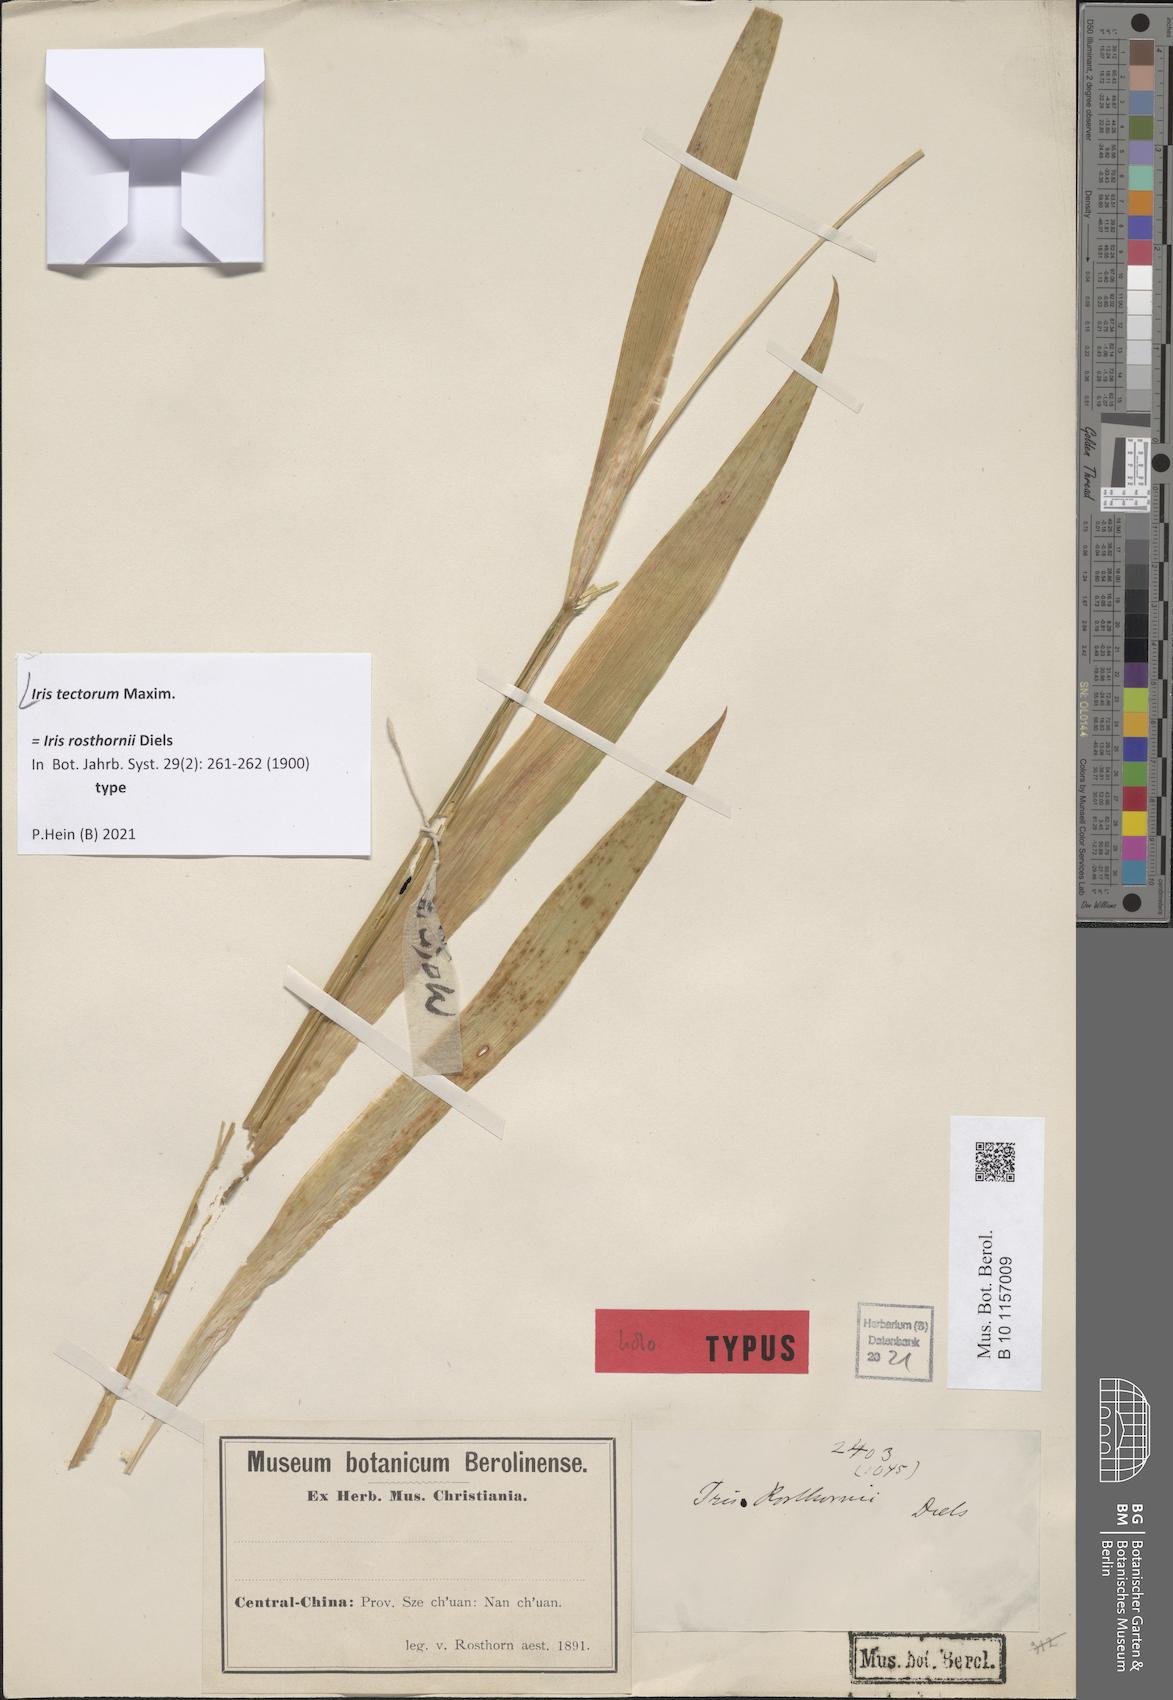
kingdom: Plantae
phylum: Tracheophyta
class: Liliopsida
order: Asparagales
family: Iridaceae
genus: Iris
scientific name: Iris tectorum
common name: Wall iris
